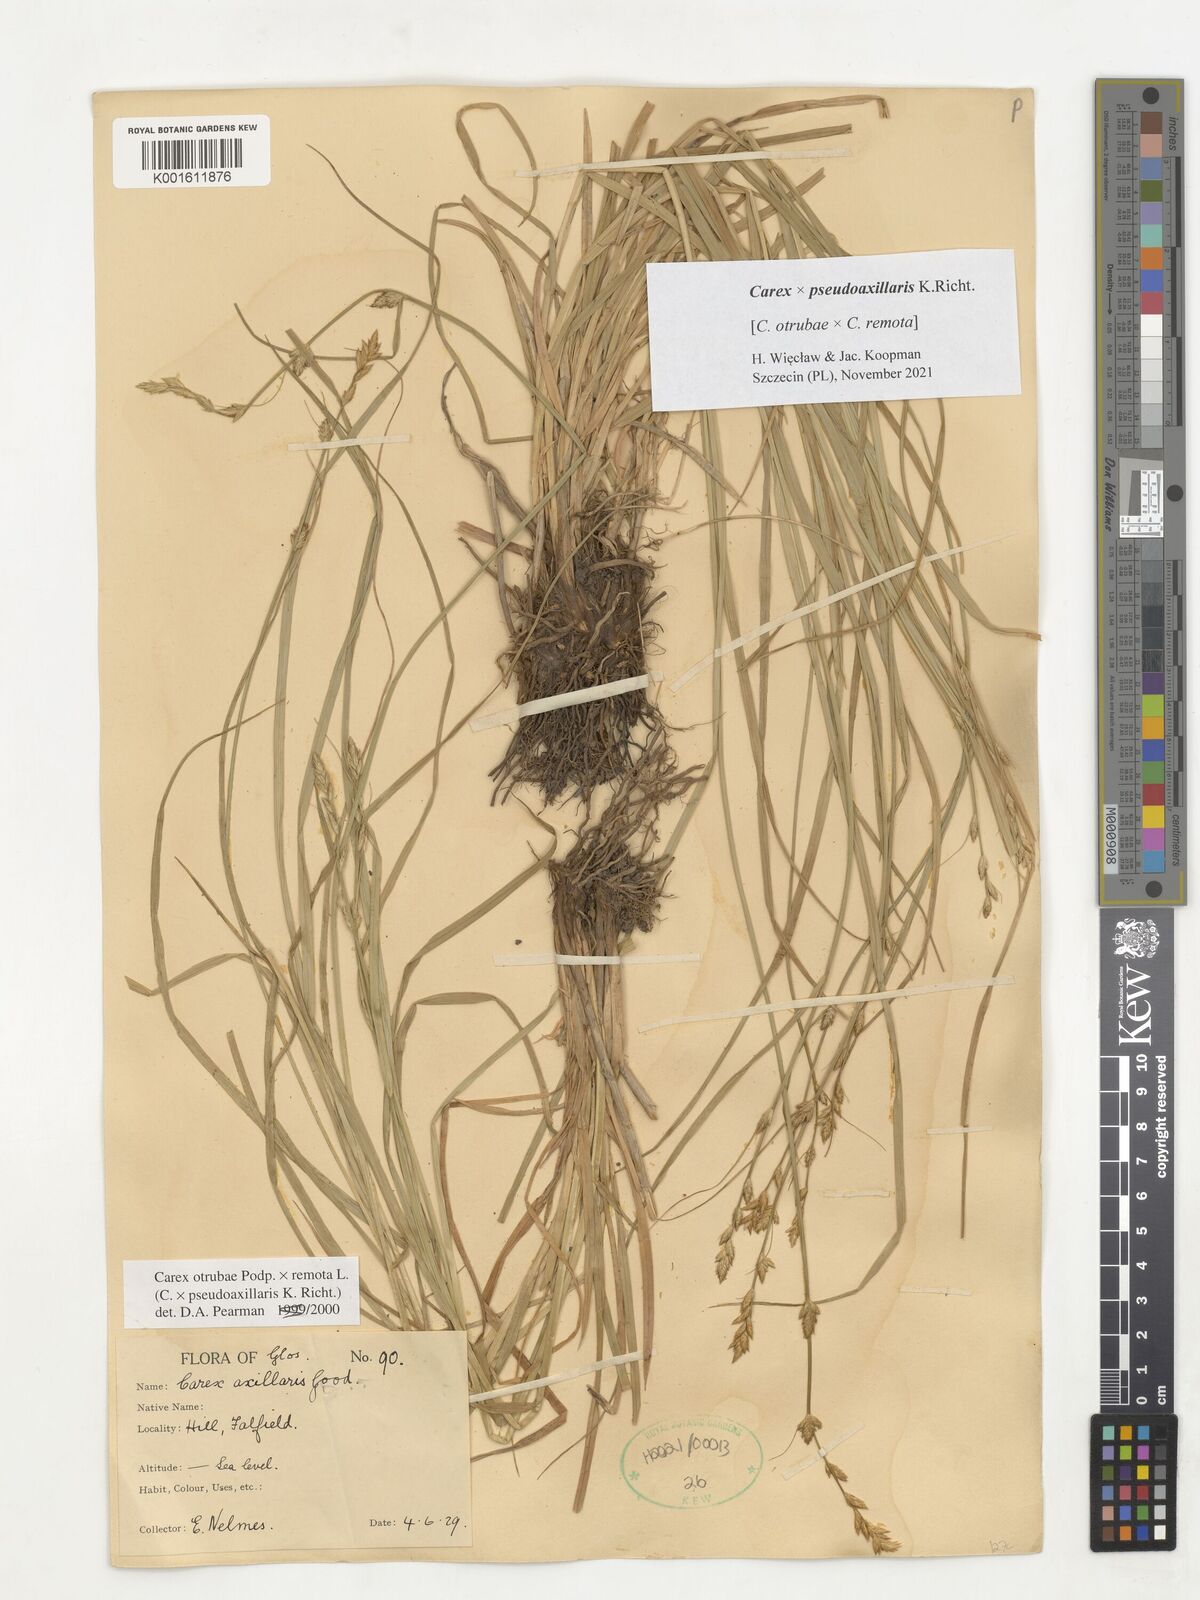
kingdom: Plantae
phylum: Tracheophyta
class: Liliopsida
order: Poales
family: Cyperaceae
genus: Carex
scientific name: Carex pseudoaxillaris
